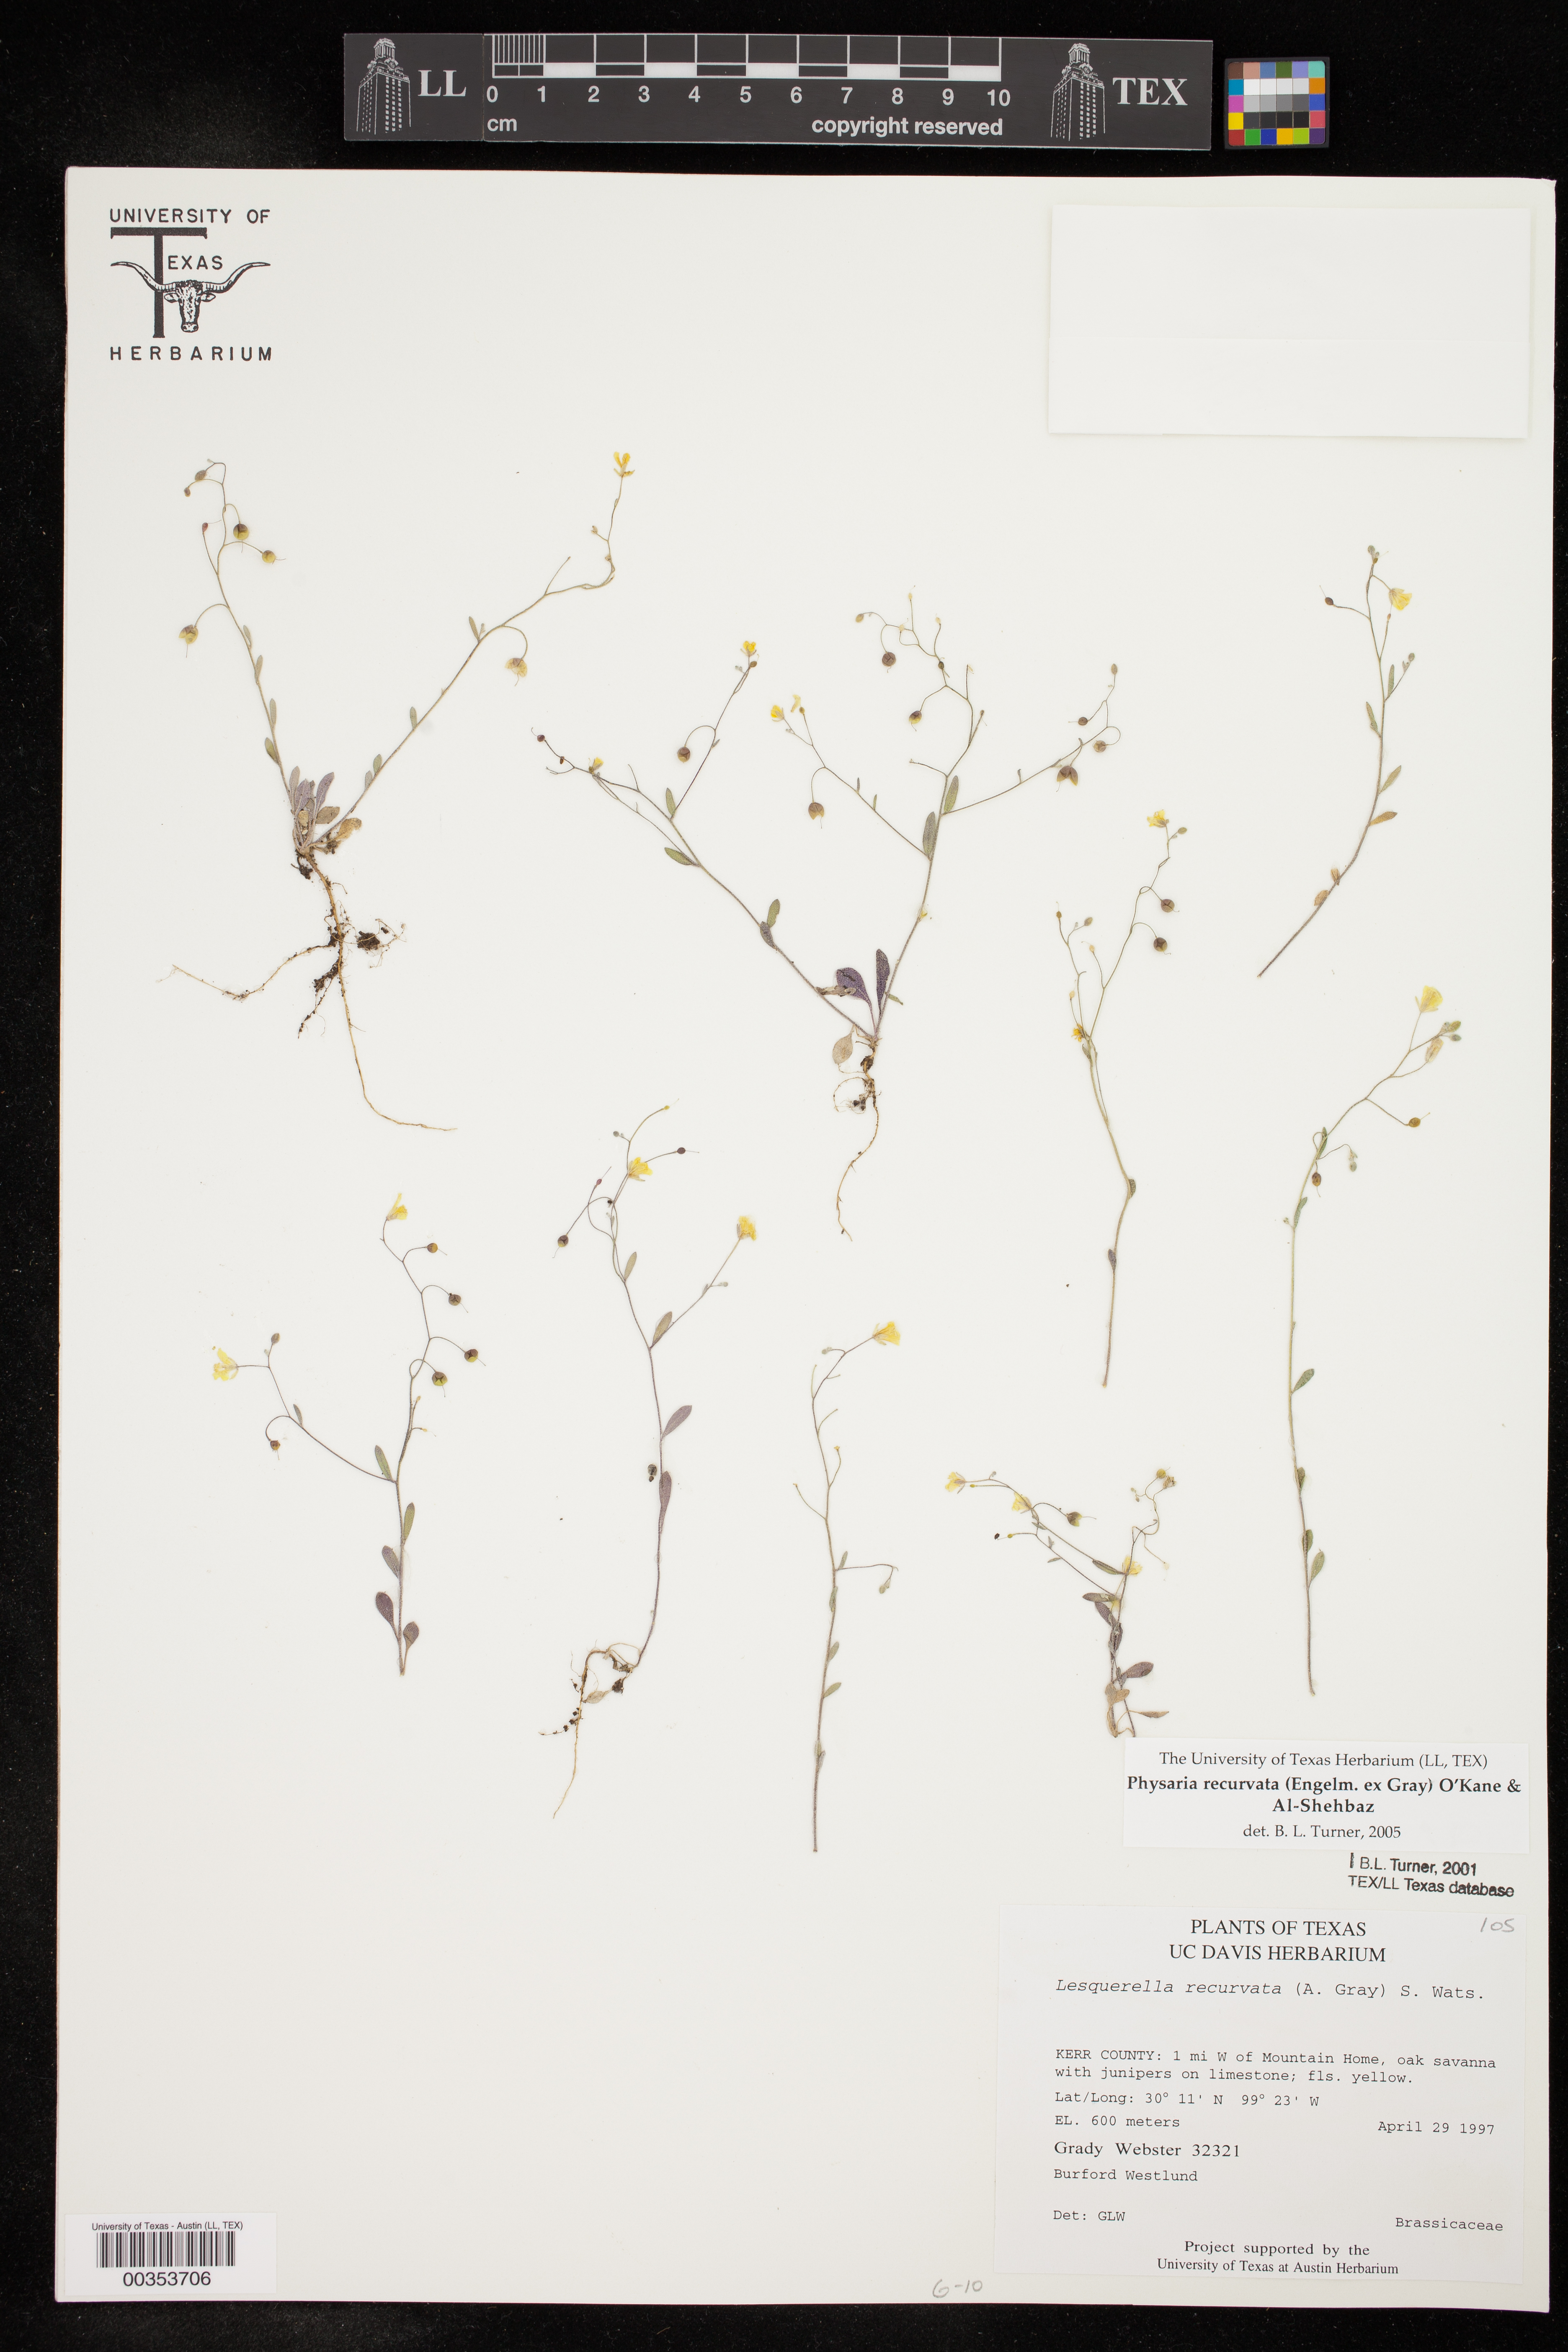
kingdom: Plantae
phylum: Tracheophyta
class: Magnoliopsida
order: Brassicales
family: Brassicaceae
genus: Physaria
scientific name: Physaria recurvata
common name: Gaslight bladderpod
